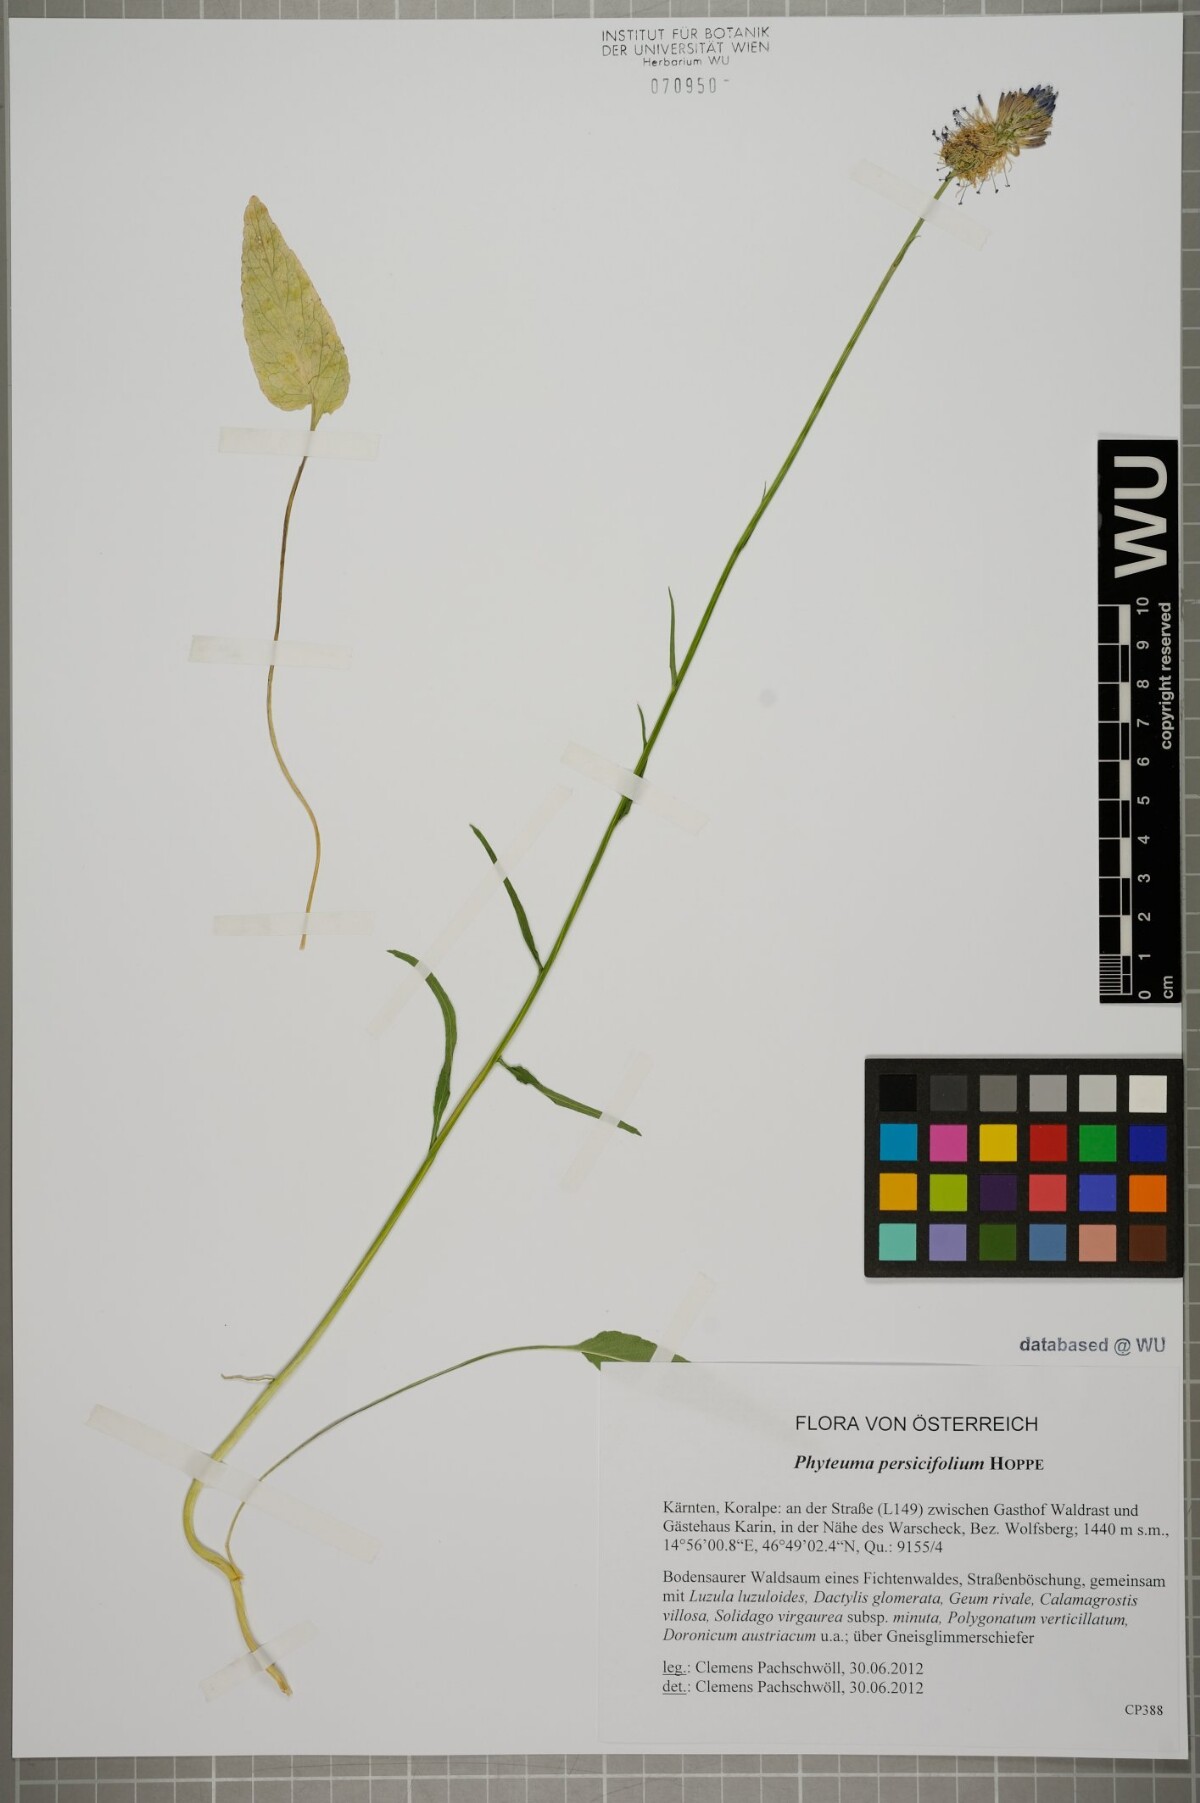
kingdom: Plantae
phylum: Tracheophyta
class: Magnoliopsida
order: Asterales
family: Campanulaceae
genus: Phyteuma
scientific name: Phyteuma persicifolium
